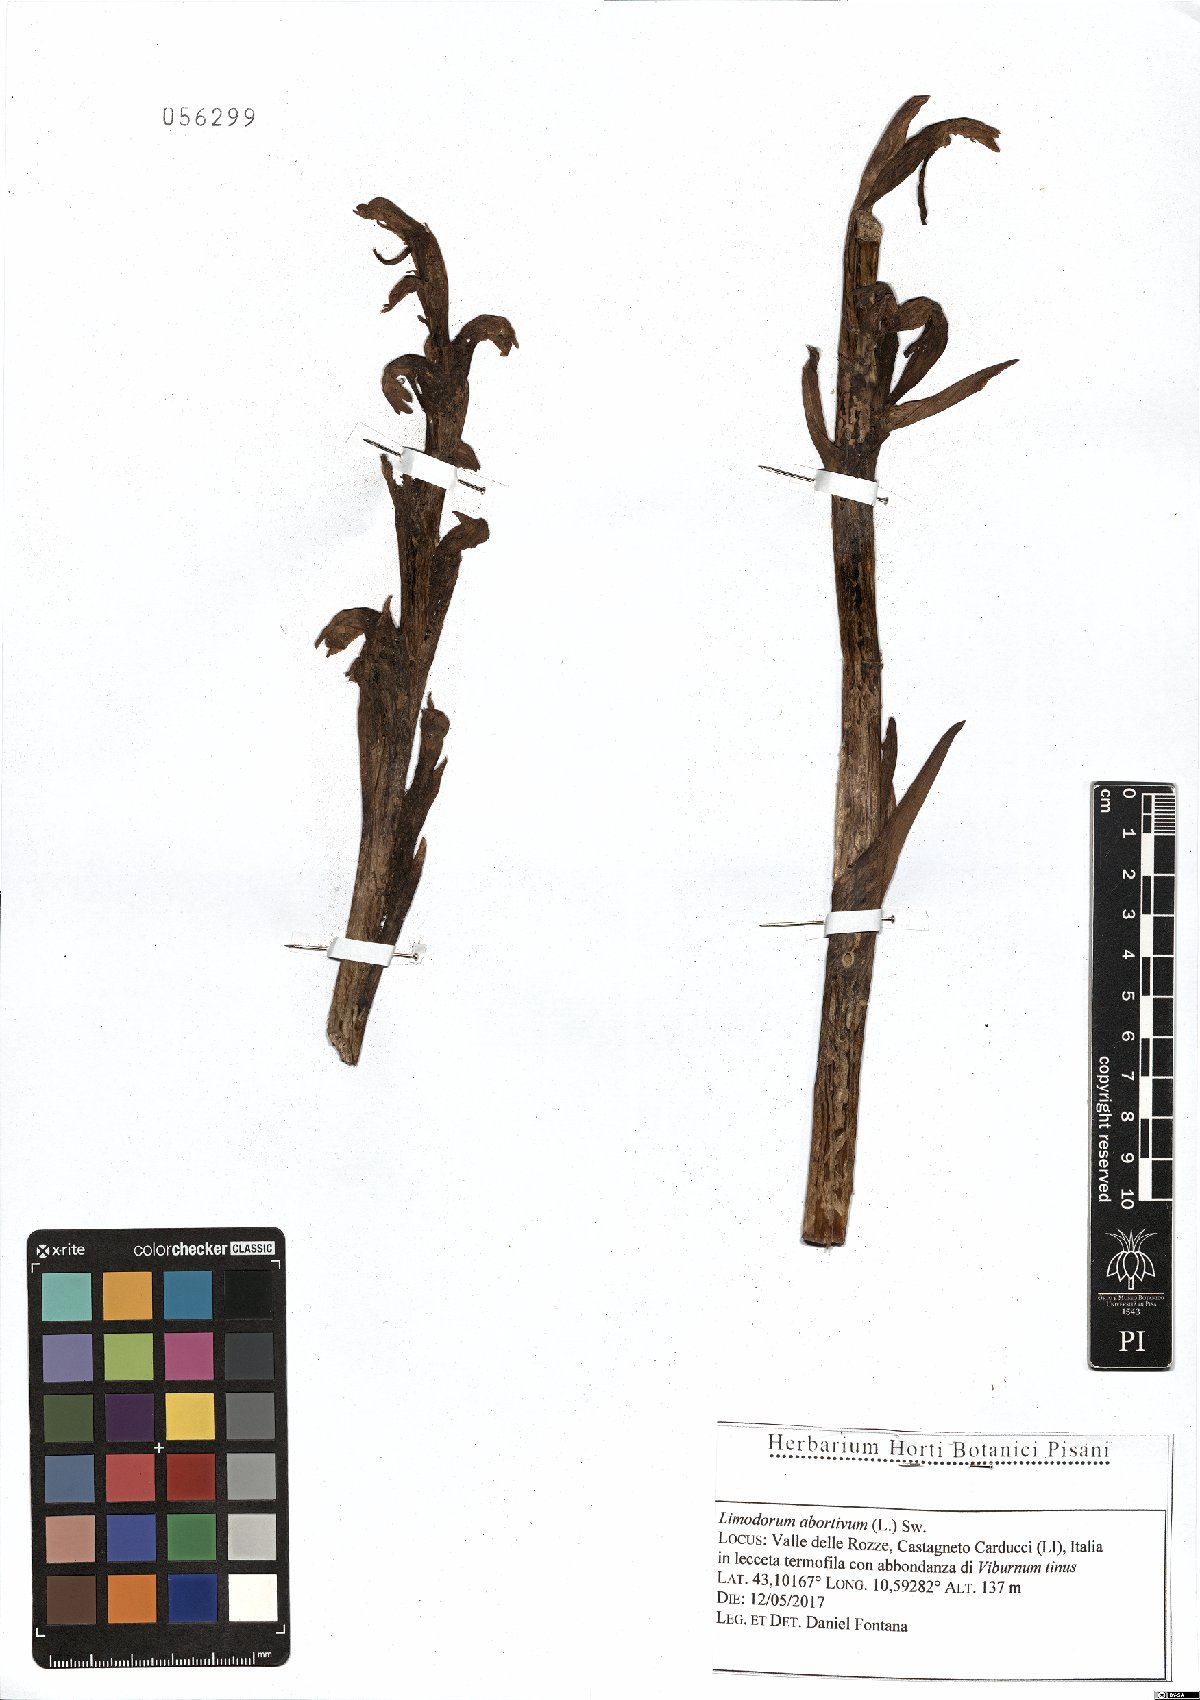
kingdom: Plantae
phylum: Tracheophyta
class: Liliopsida
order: Asparagales
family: Orchidaceae
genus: Limodorum
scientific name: Limodorum abortivum
